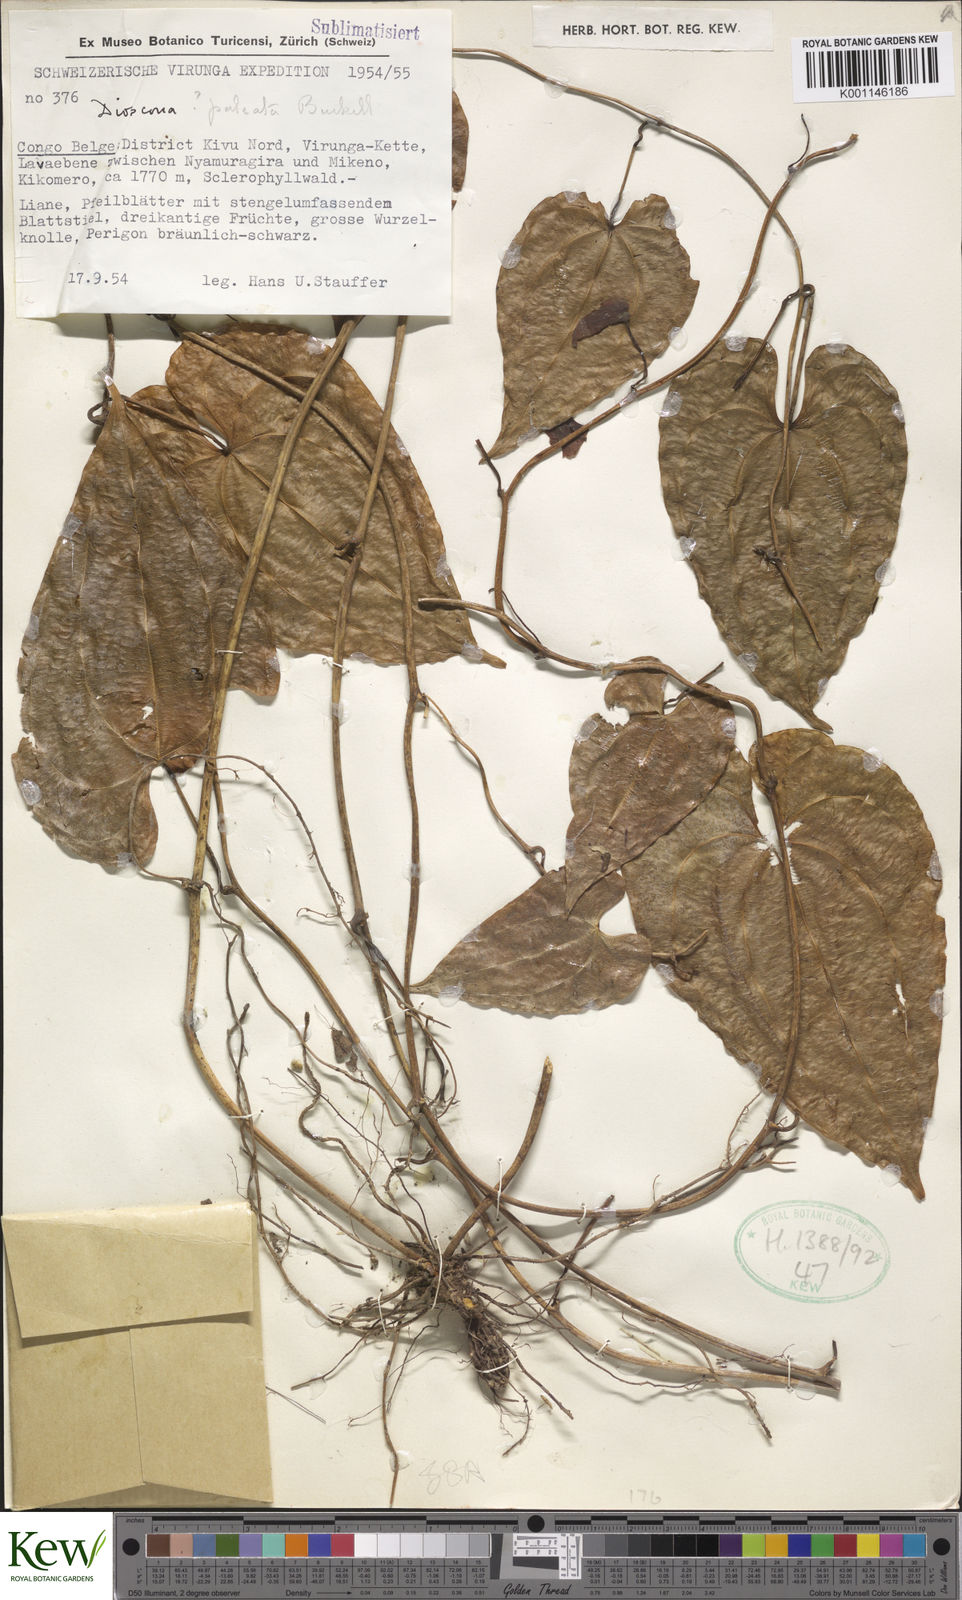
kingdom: Plantae
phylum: Tracheophyta
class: Liliopsida
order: Dioscoreales
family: Dioscoreaceae
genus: Dioscorea
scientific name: Dioscorea paleata
